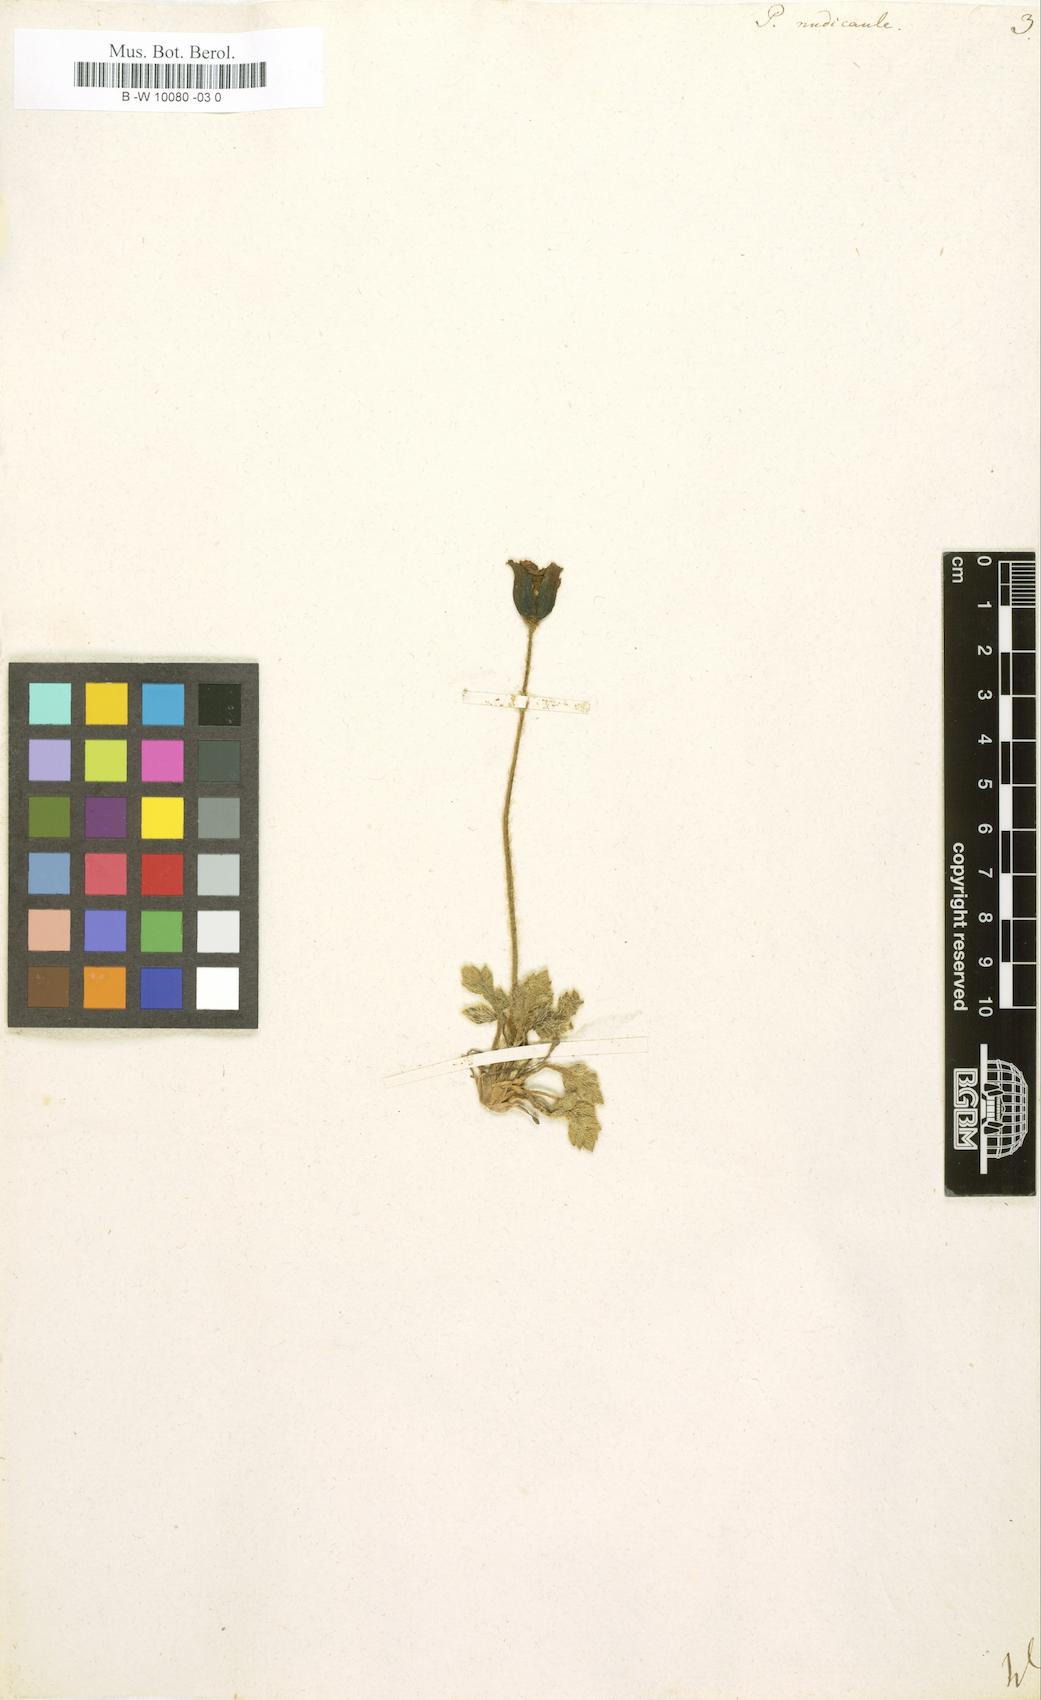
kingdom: Plantae
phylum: Tracheophyta
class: Magnoliopsida
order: Ranunculales
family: Papaveraceae
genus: Papaver
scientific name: Papaver nudicaule
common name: Arctic poppy
